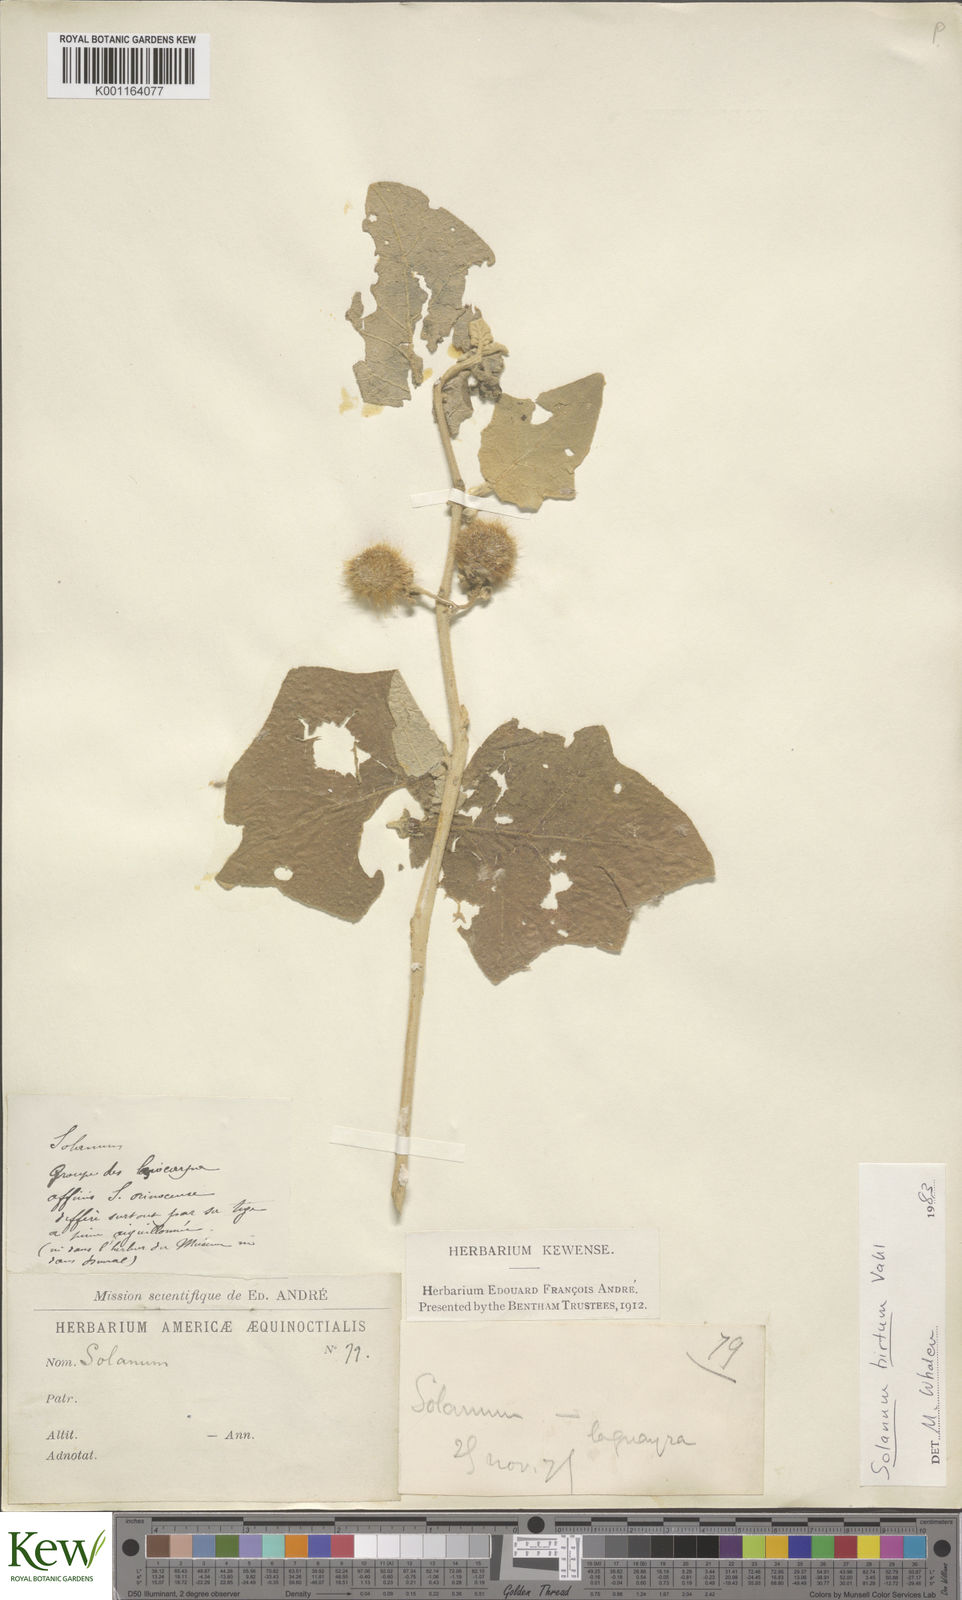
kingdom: Plantae
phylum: Tracheophyta
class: Magnoliopsida
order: Solanales
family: Solanaceae
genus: Solanum
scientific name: Solanum hirtum
